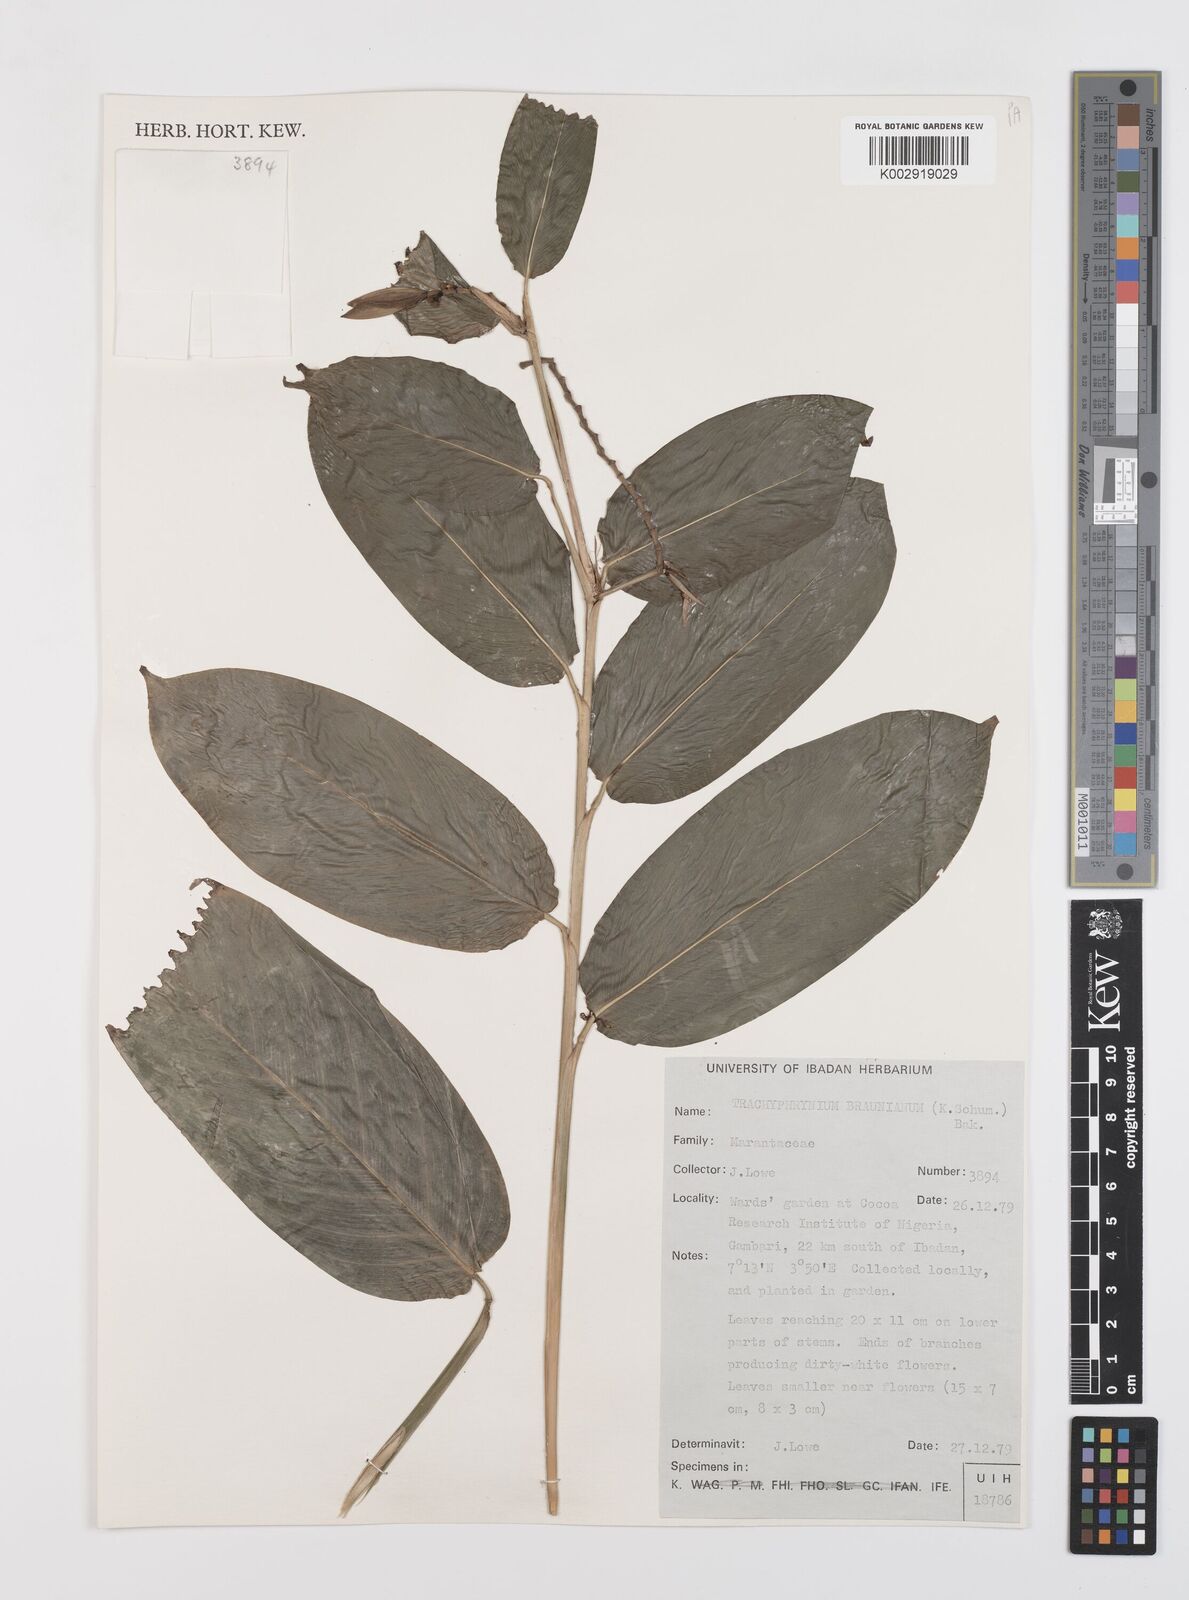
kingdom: Plantae
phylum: Tracheophyta
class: Liliopsida
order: Zingiberales
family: Marantaceae
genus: Trachyphrynium
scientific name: Trachyphrynium braunianum
